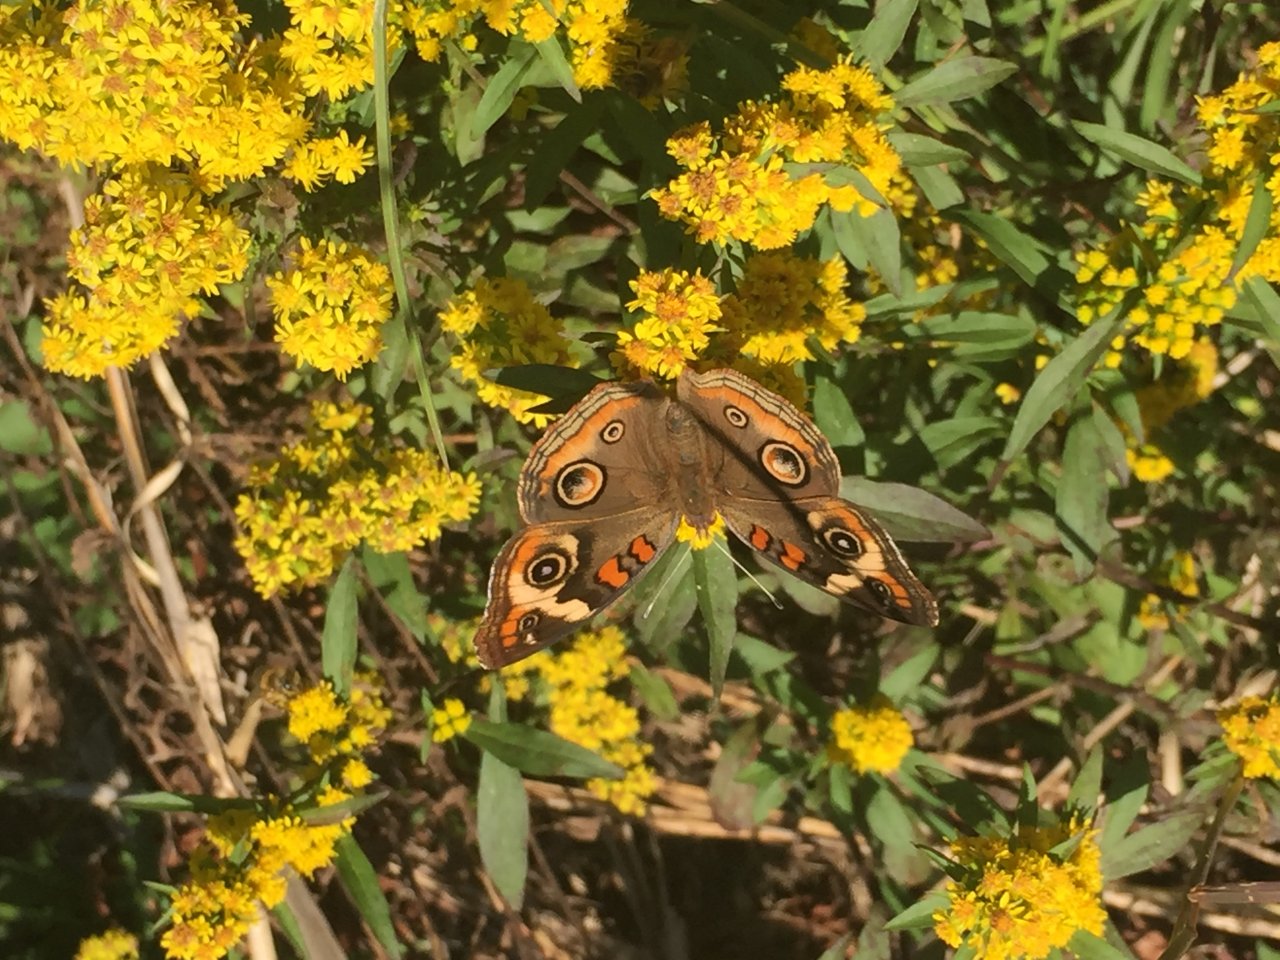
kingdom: Animalia
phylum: Arthropoda
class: Insecta
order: Lepidoptera
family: Nymphalidae
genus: Junonia
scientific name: Junonia coenia
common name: Common Buckeye
